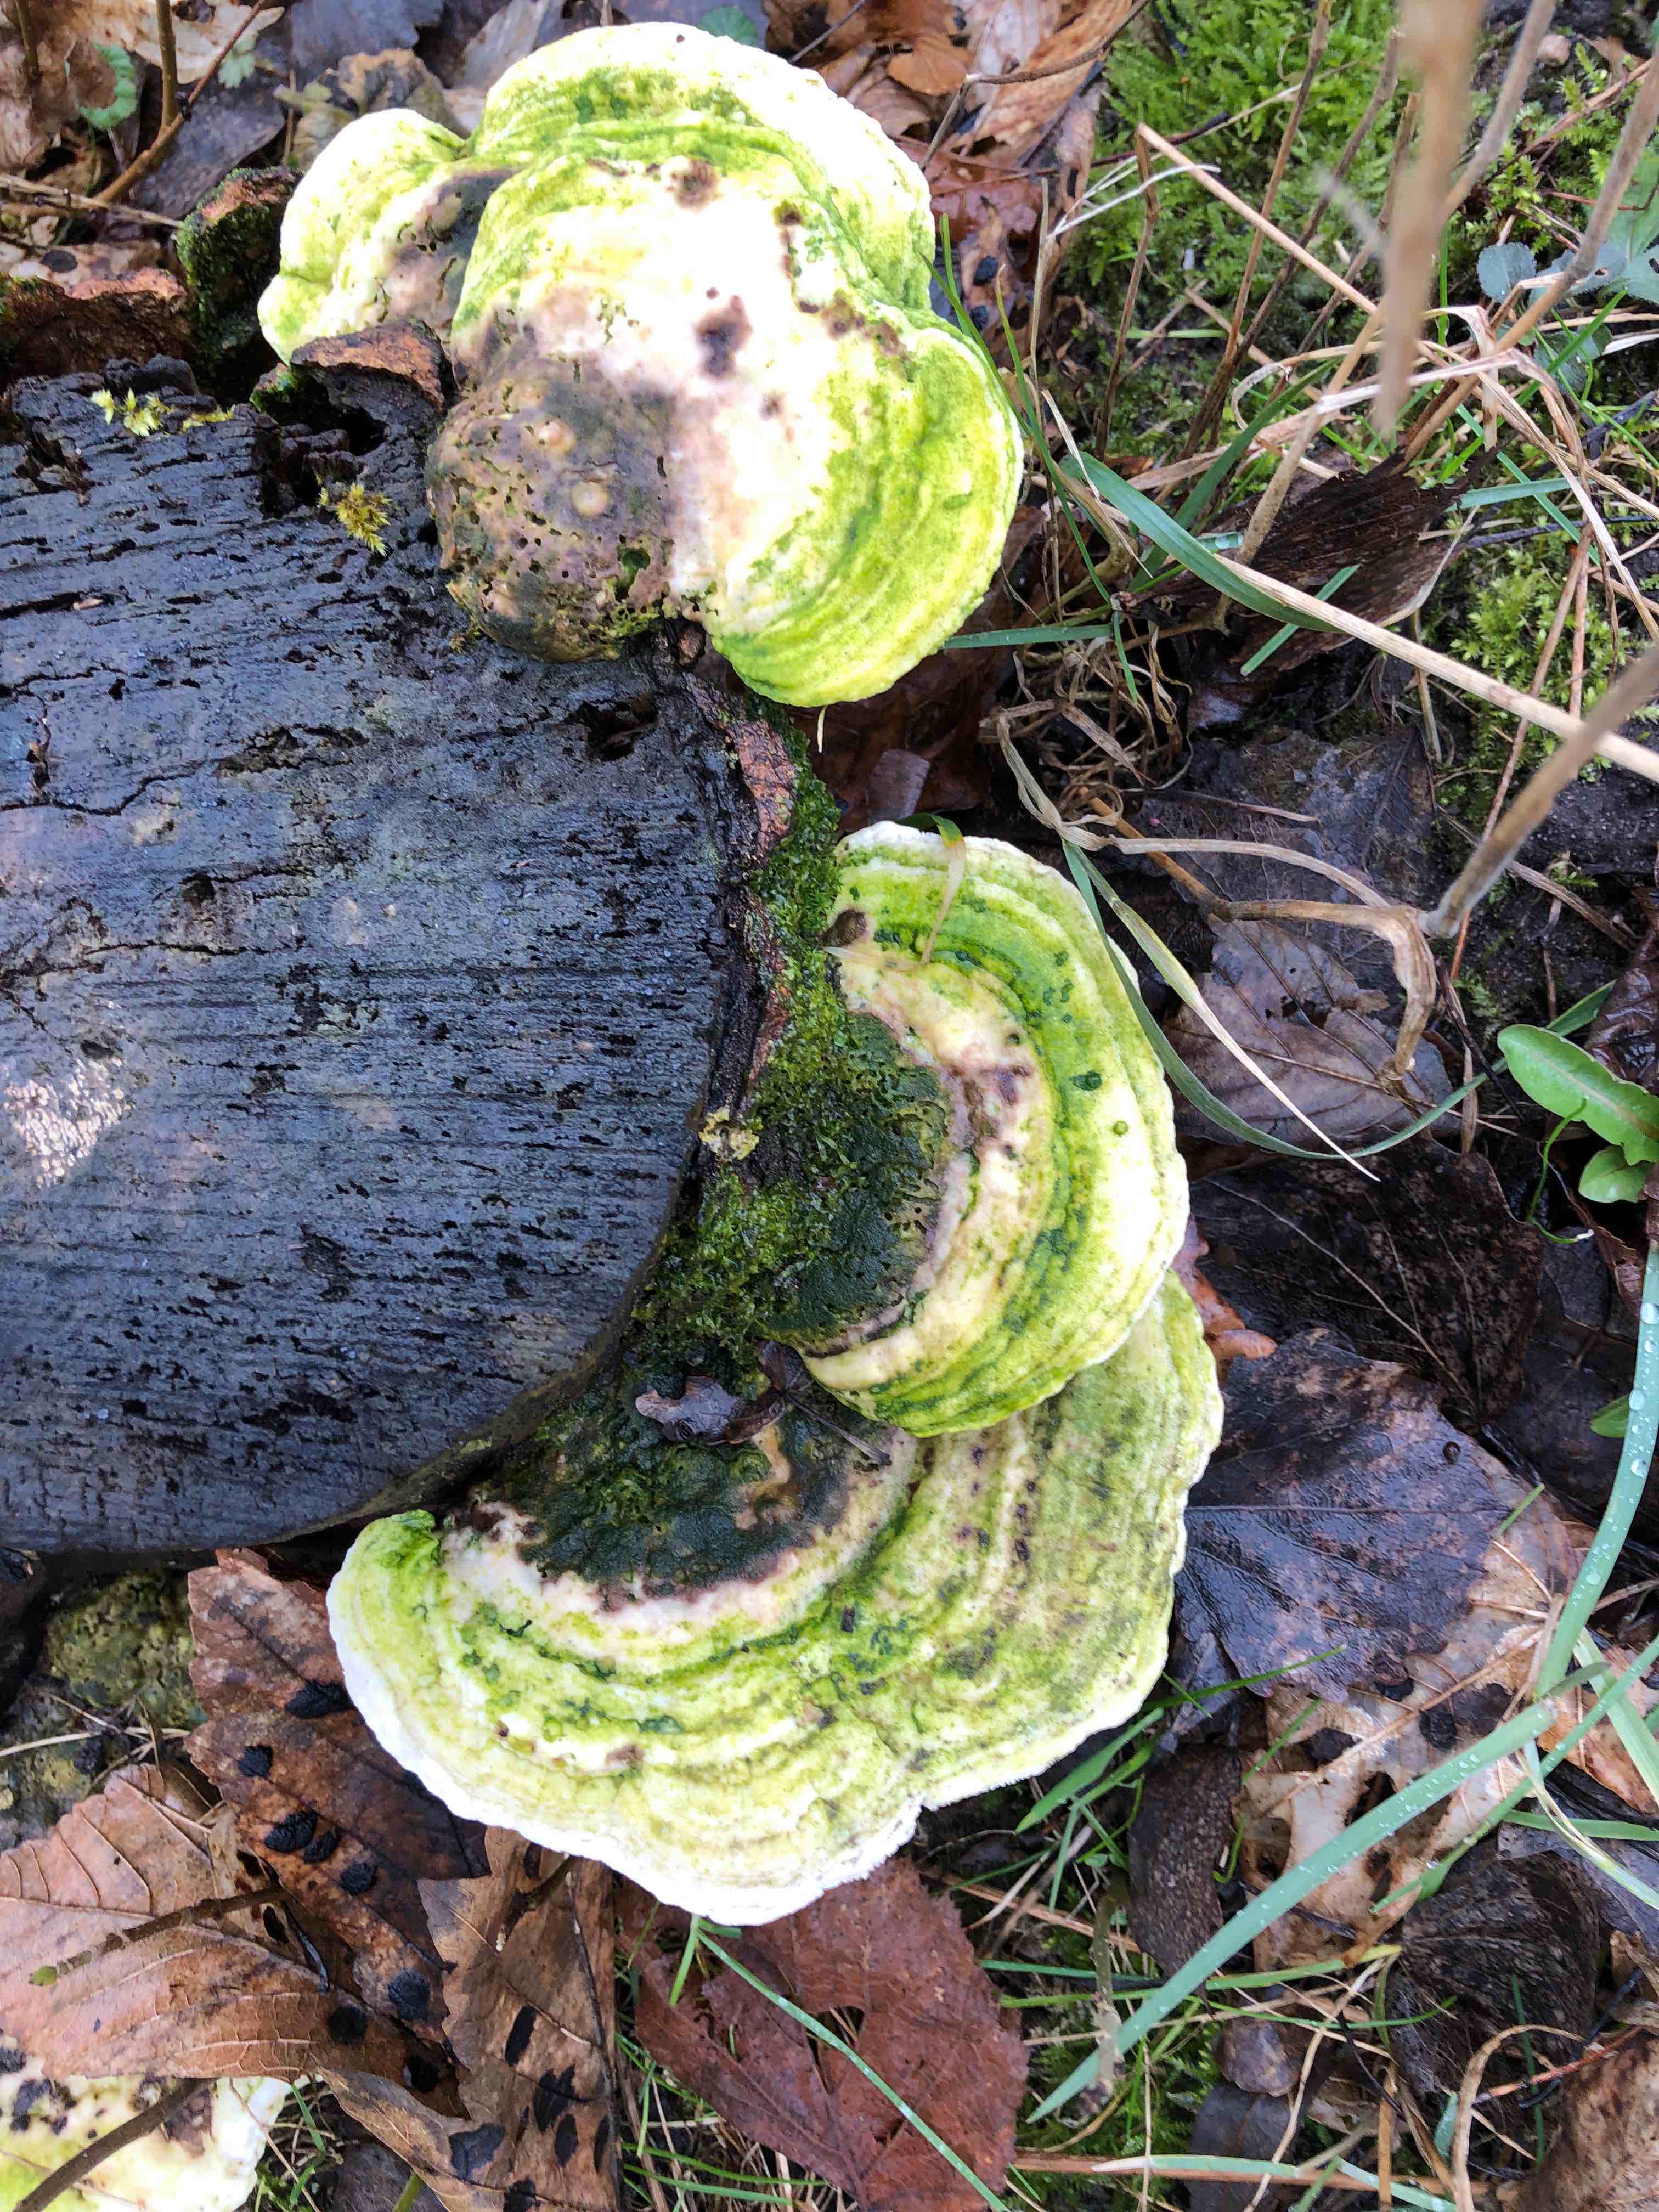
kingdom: Fungi
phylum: Basidiomycota
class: Agaricomycetes
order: Polyporales
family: Polyporaceae
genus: Trametes
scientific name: Trametes gibbosa
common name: puklet læderporesvamp
